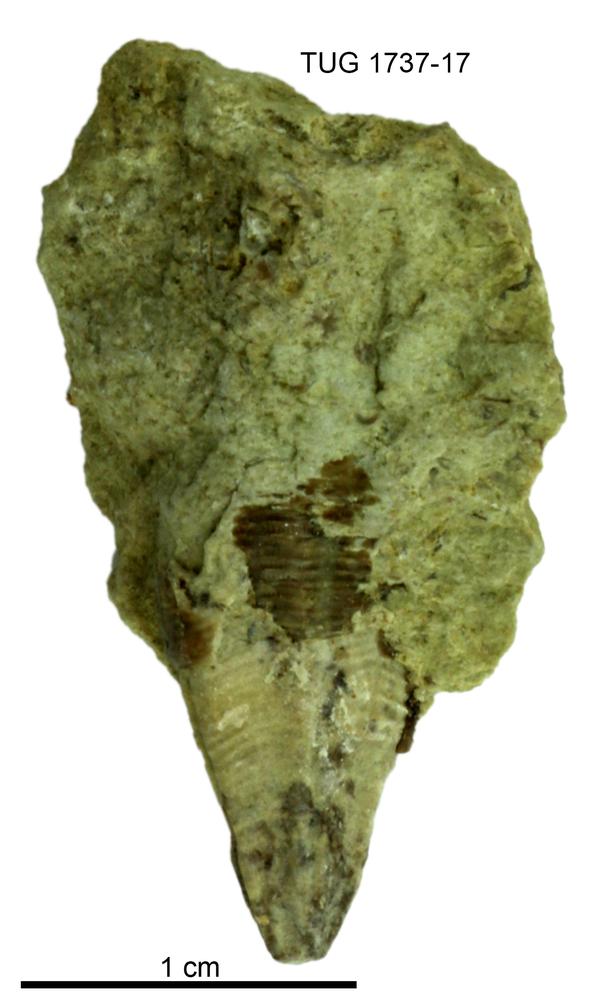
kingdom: Animalia
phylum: Cnidaria
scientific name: Cnidaria
